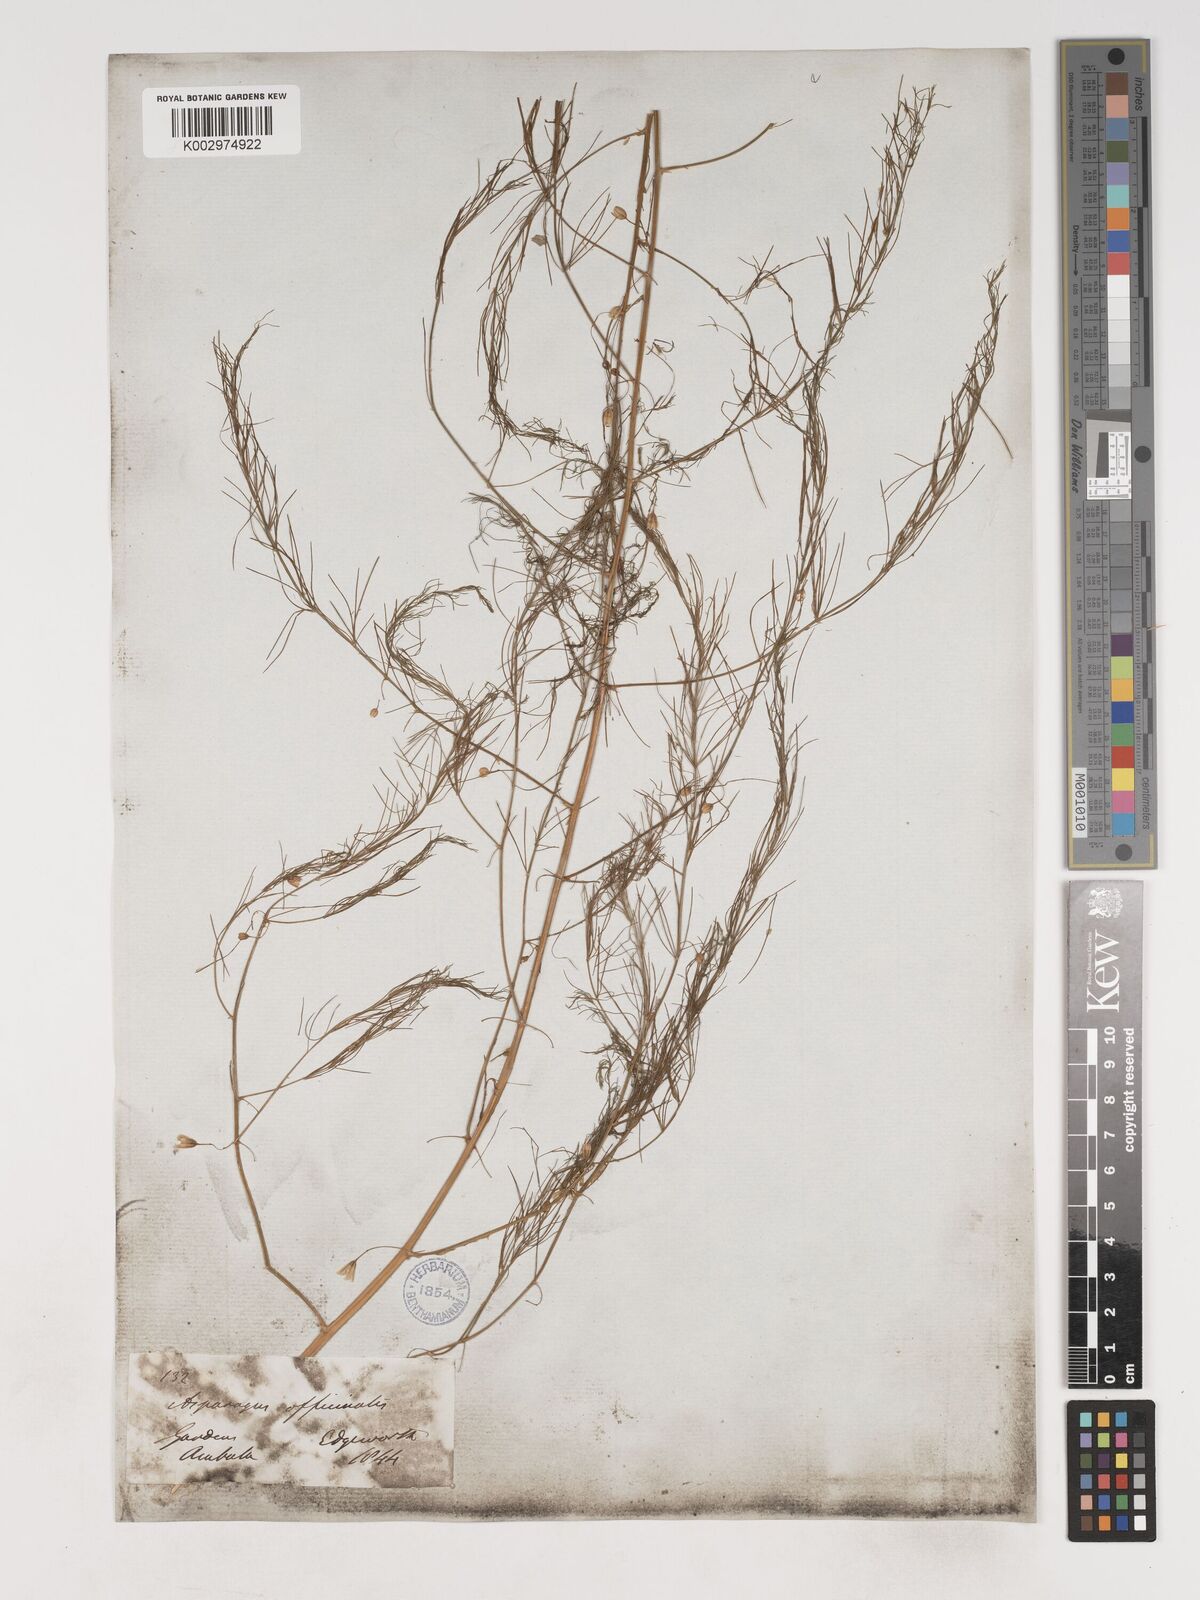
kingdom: Plantae
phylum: Tracheophyta
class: Liliopsida
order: Asparagales
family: Asparagaceae
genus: Asparagus
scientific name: Asparagus officinalis
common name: Garden asparagus
